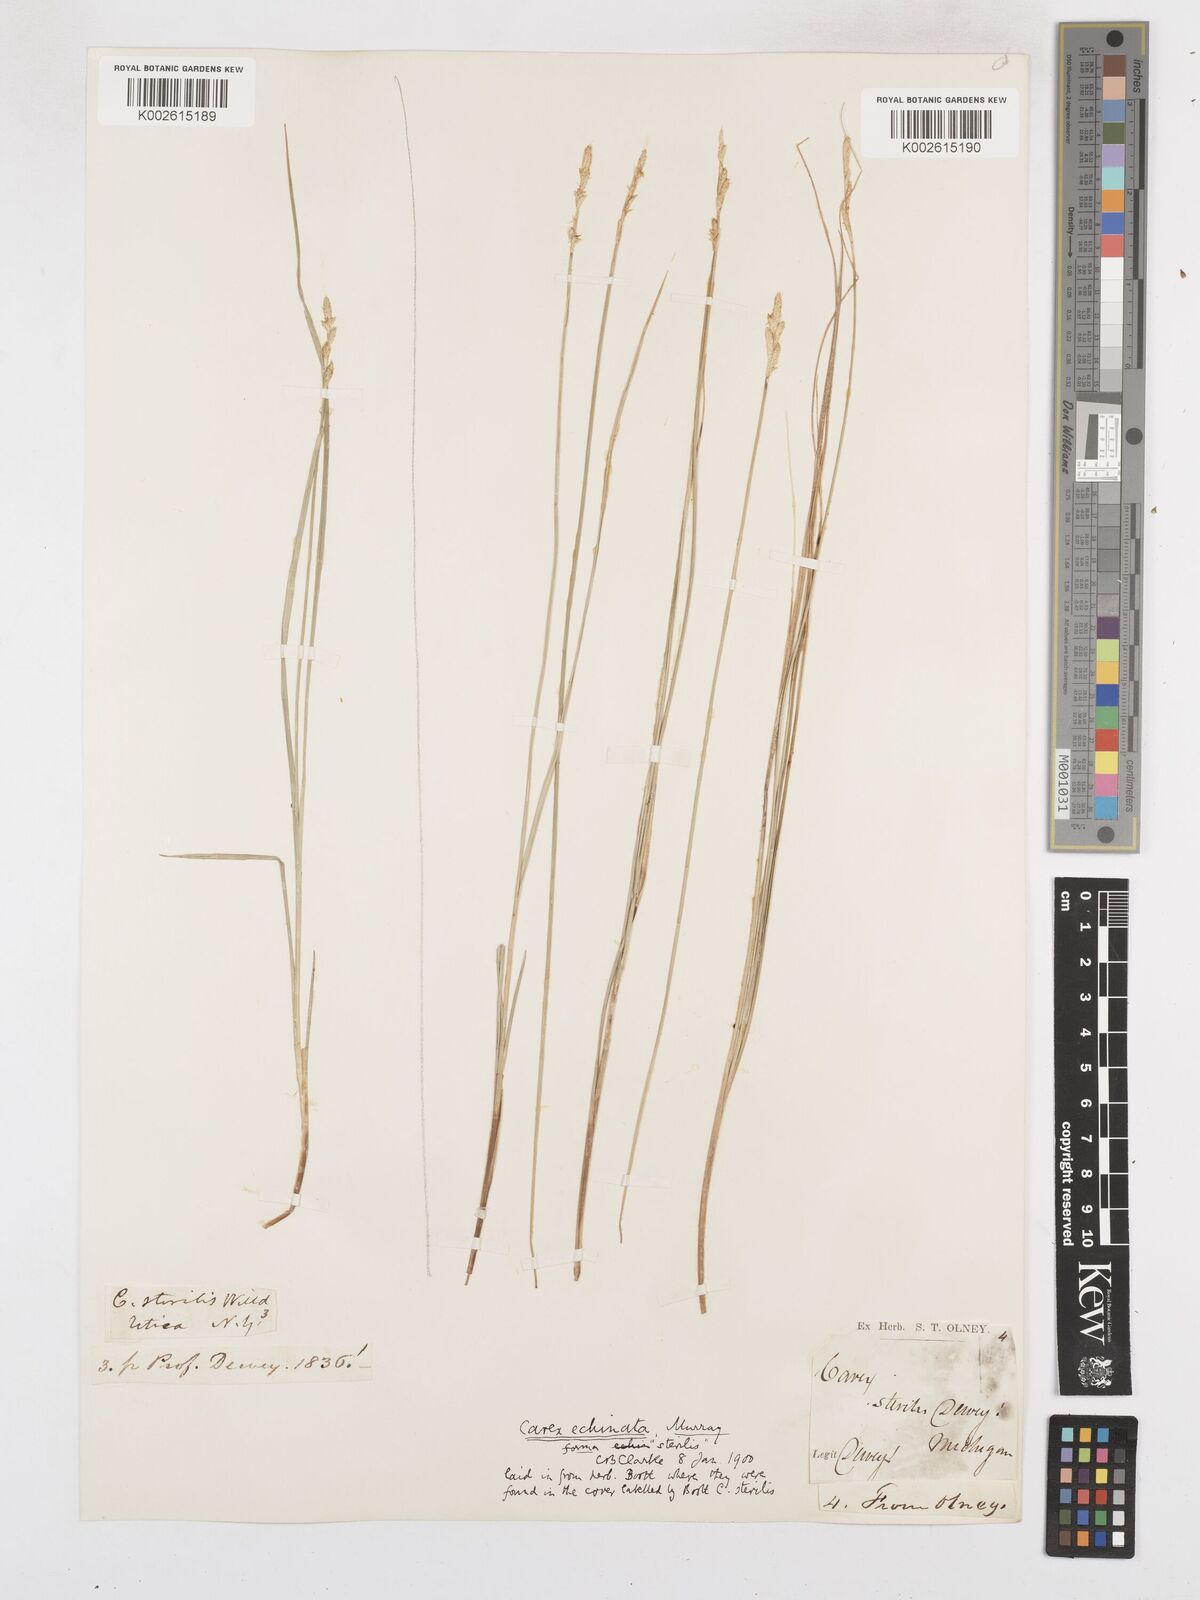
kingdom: Plantae
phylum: Tracheophyta
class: Liliopsida
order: Poales
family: Cyperaceae
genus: Carex
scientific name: Carex echinata
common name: Star sedge
